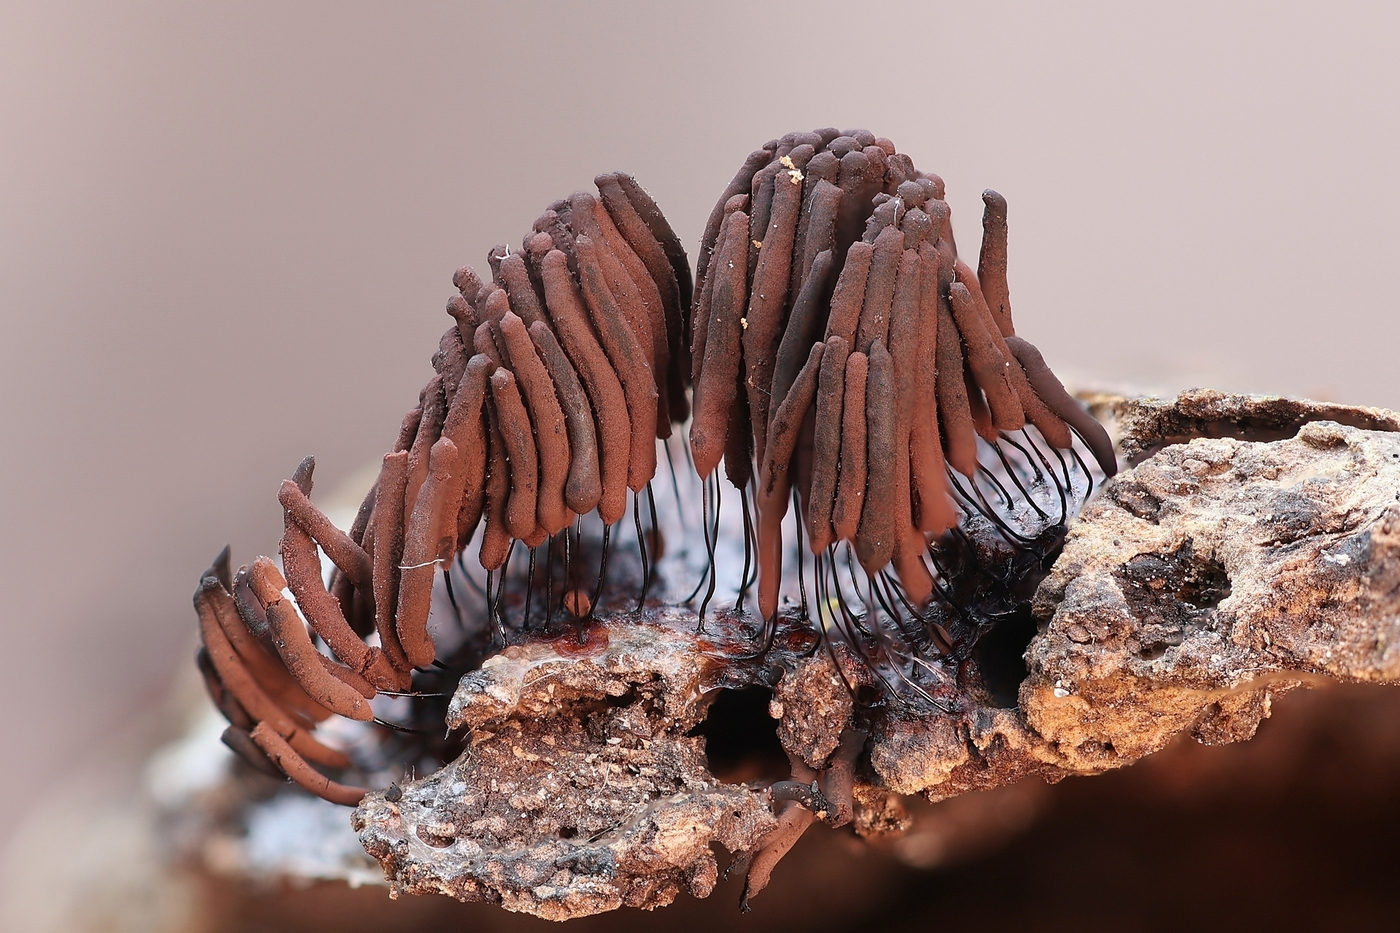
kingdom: Protozoa
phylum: Mycetozoa
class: Myxomycetes
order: Stemonitidales
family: Stemonitidaceae
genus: Stemonitis
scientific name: Stemonitis fusca
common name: sodbrun støvkølle
